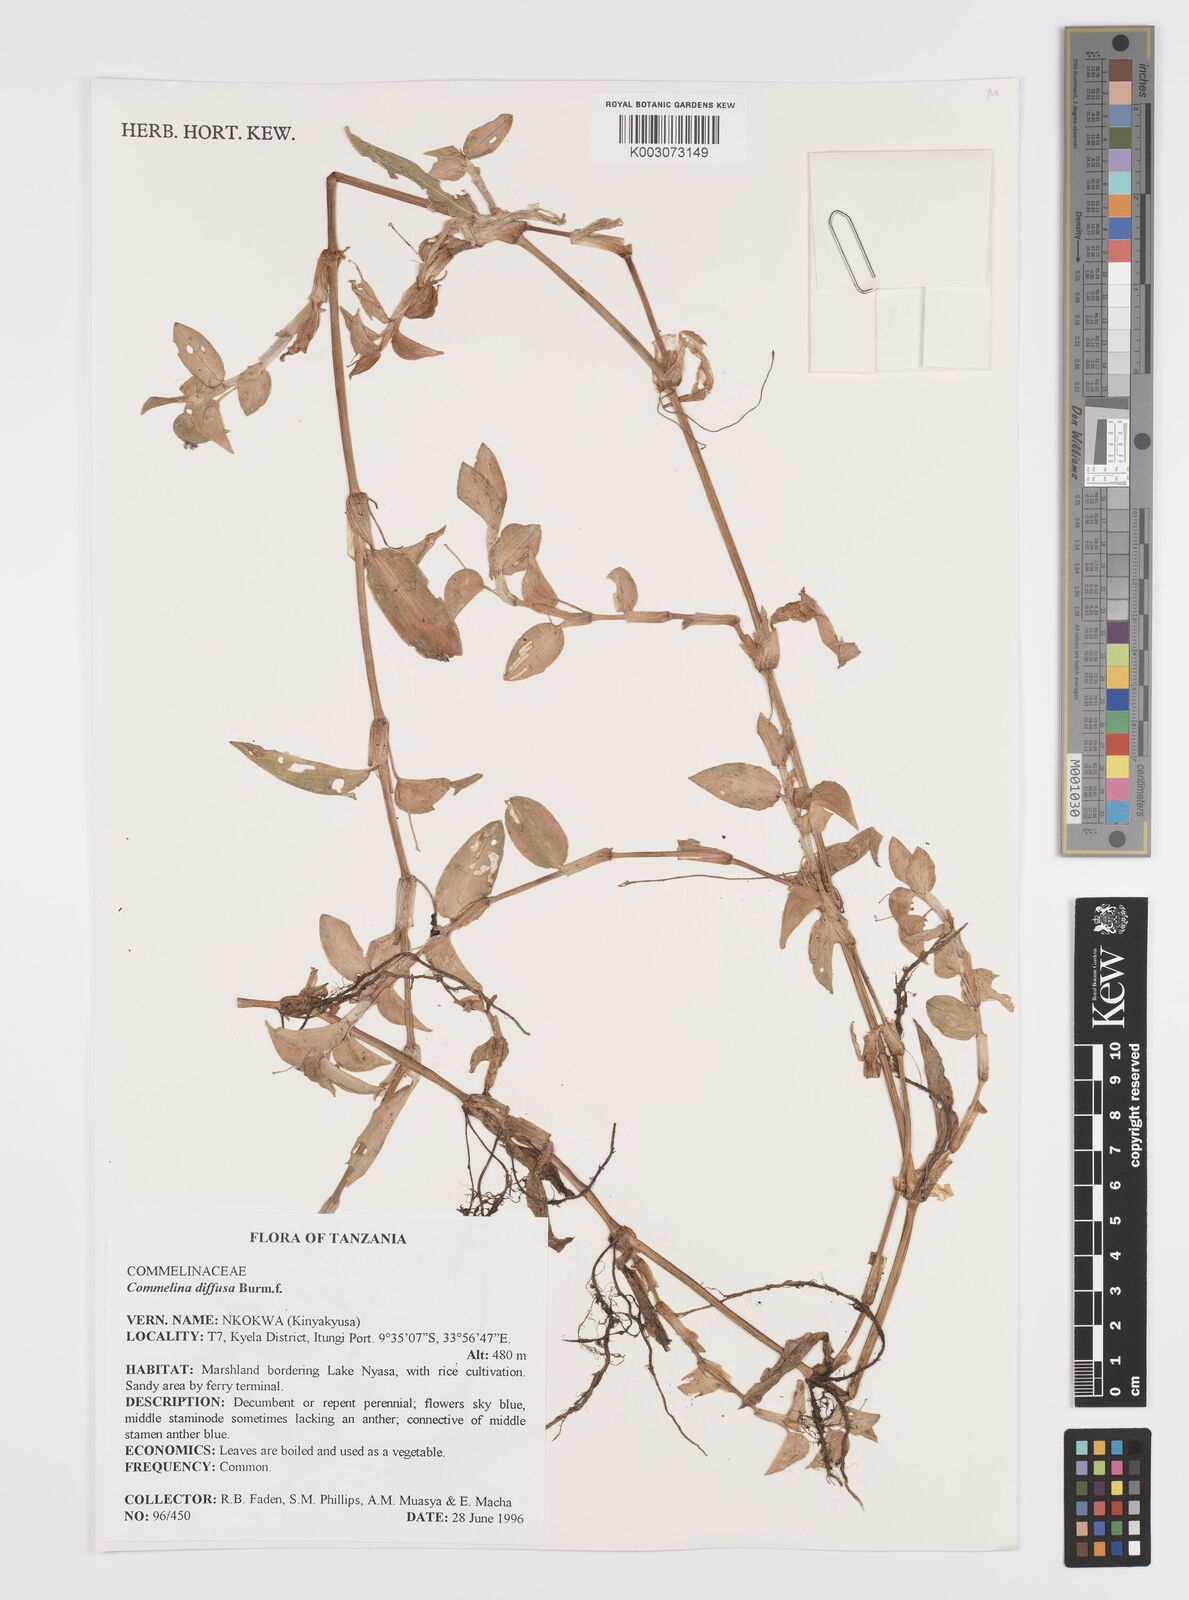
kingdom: Plantae
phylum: Tracheophyta
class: Liliopsida
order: Commelinales
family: Commelinaceae
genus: Commelina
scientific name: Commelina diffusa
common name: Climbing dayflower
